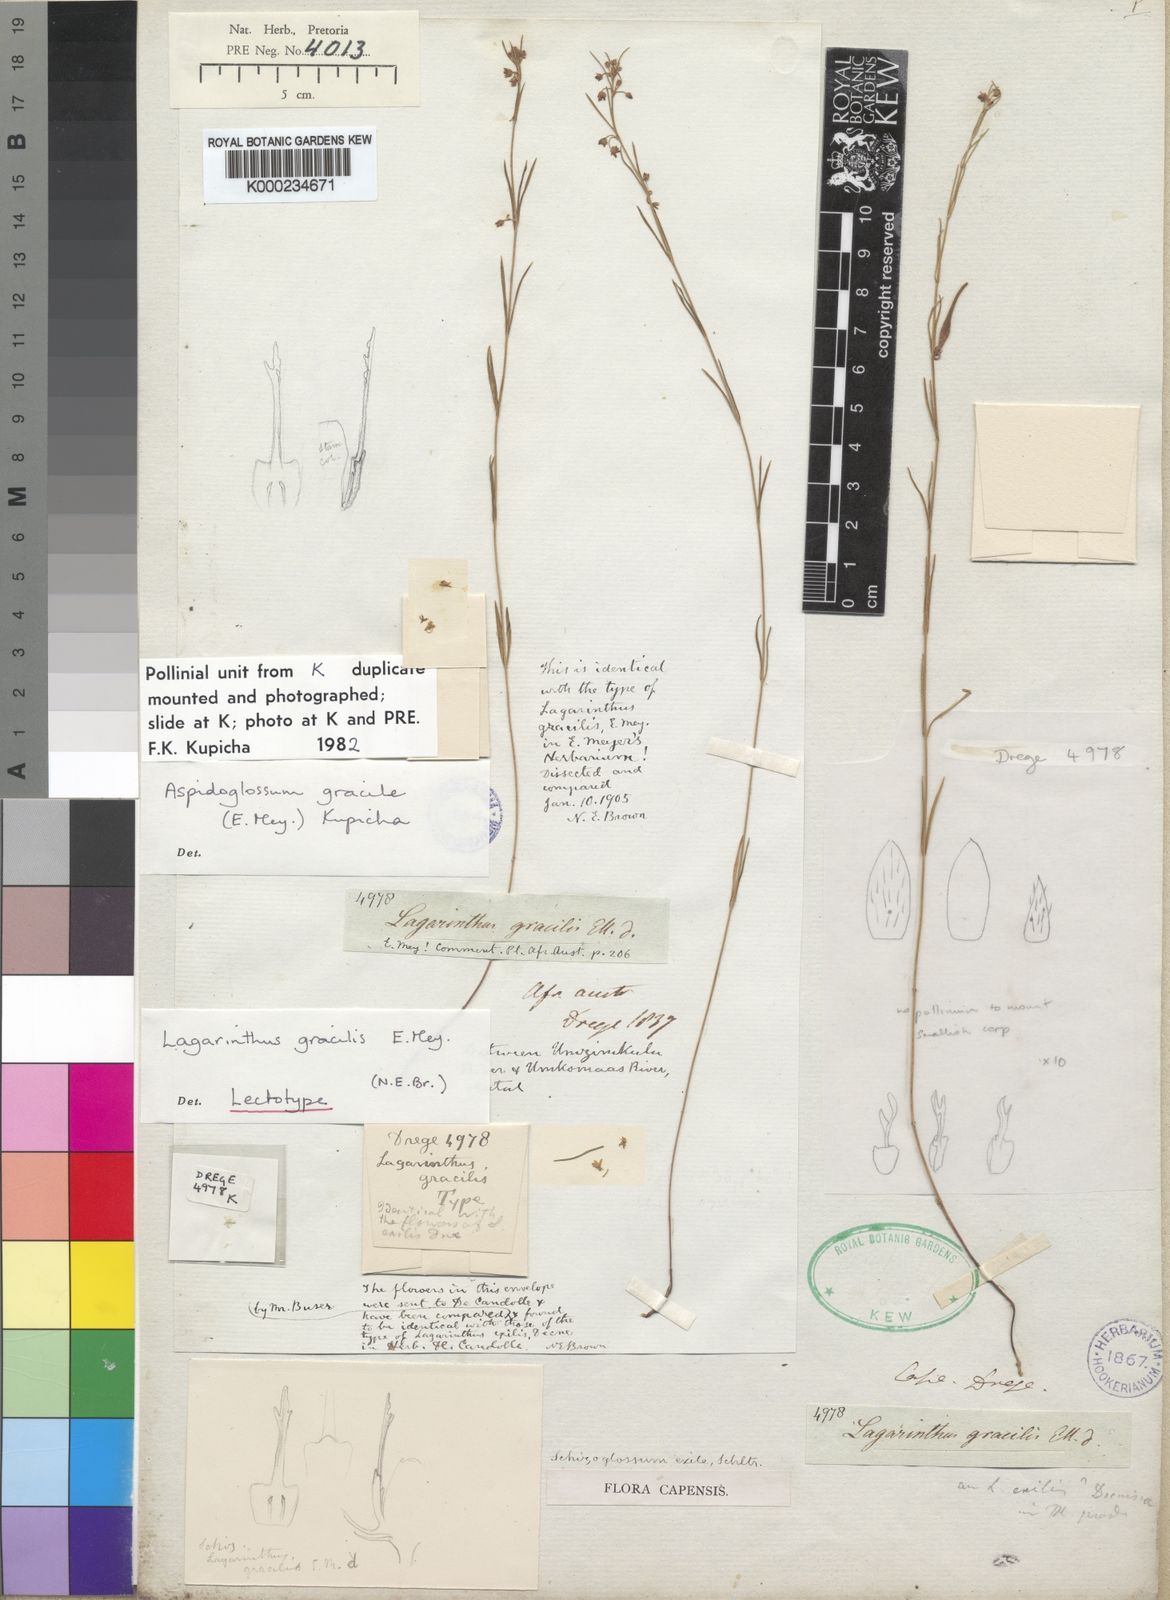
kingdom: Plantae
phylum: Tracheophyta
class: Magnoliopsida
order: Gentianales
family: Apocynaceae
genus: Aspidoglossum
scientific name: Aspidoglossum gracile
